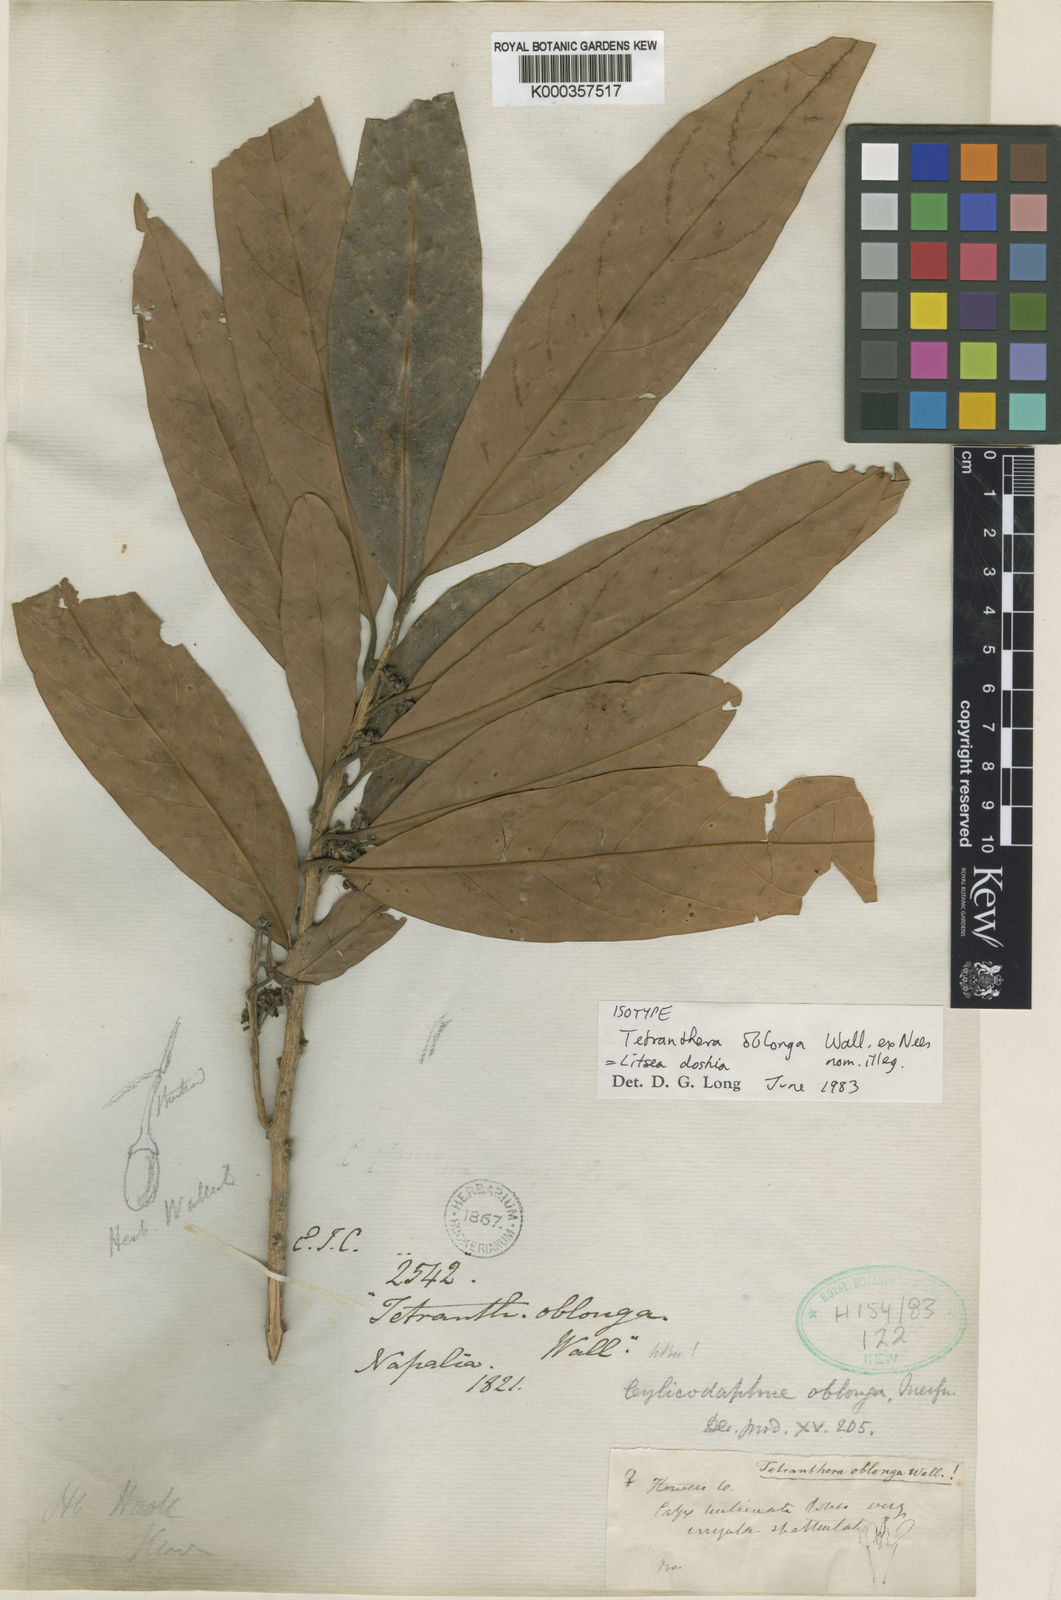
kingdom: Plantae
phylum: Tracheophyta
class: Magnoliopsida
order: Laurales
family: Lauraceae
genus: Litsea
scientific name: Litsea albescens
